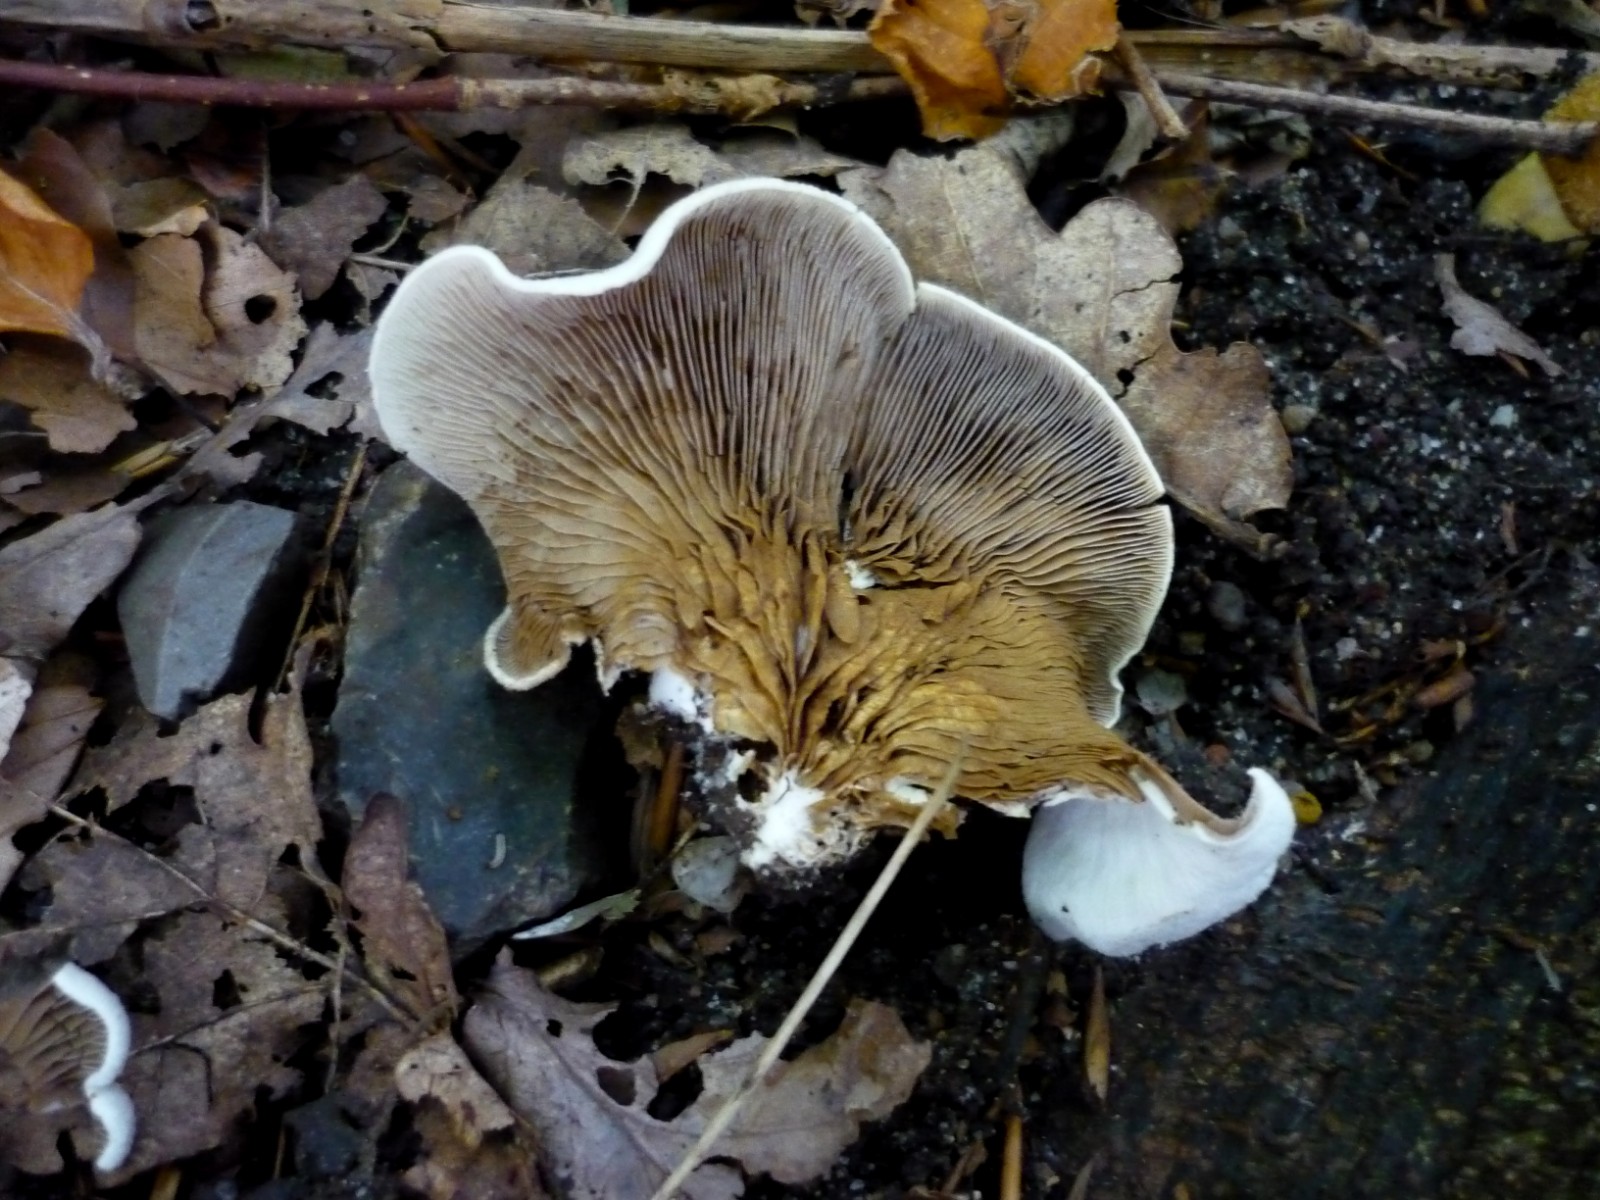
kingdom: Fungi
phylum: Basidiomycota
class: Agaricomycetes
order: Agaricales
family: Crepidotaceae
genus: Crepidotus
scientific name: Crepidotus autochthonus
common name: skæv muslingesvamp
